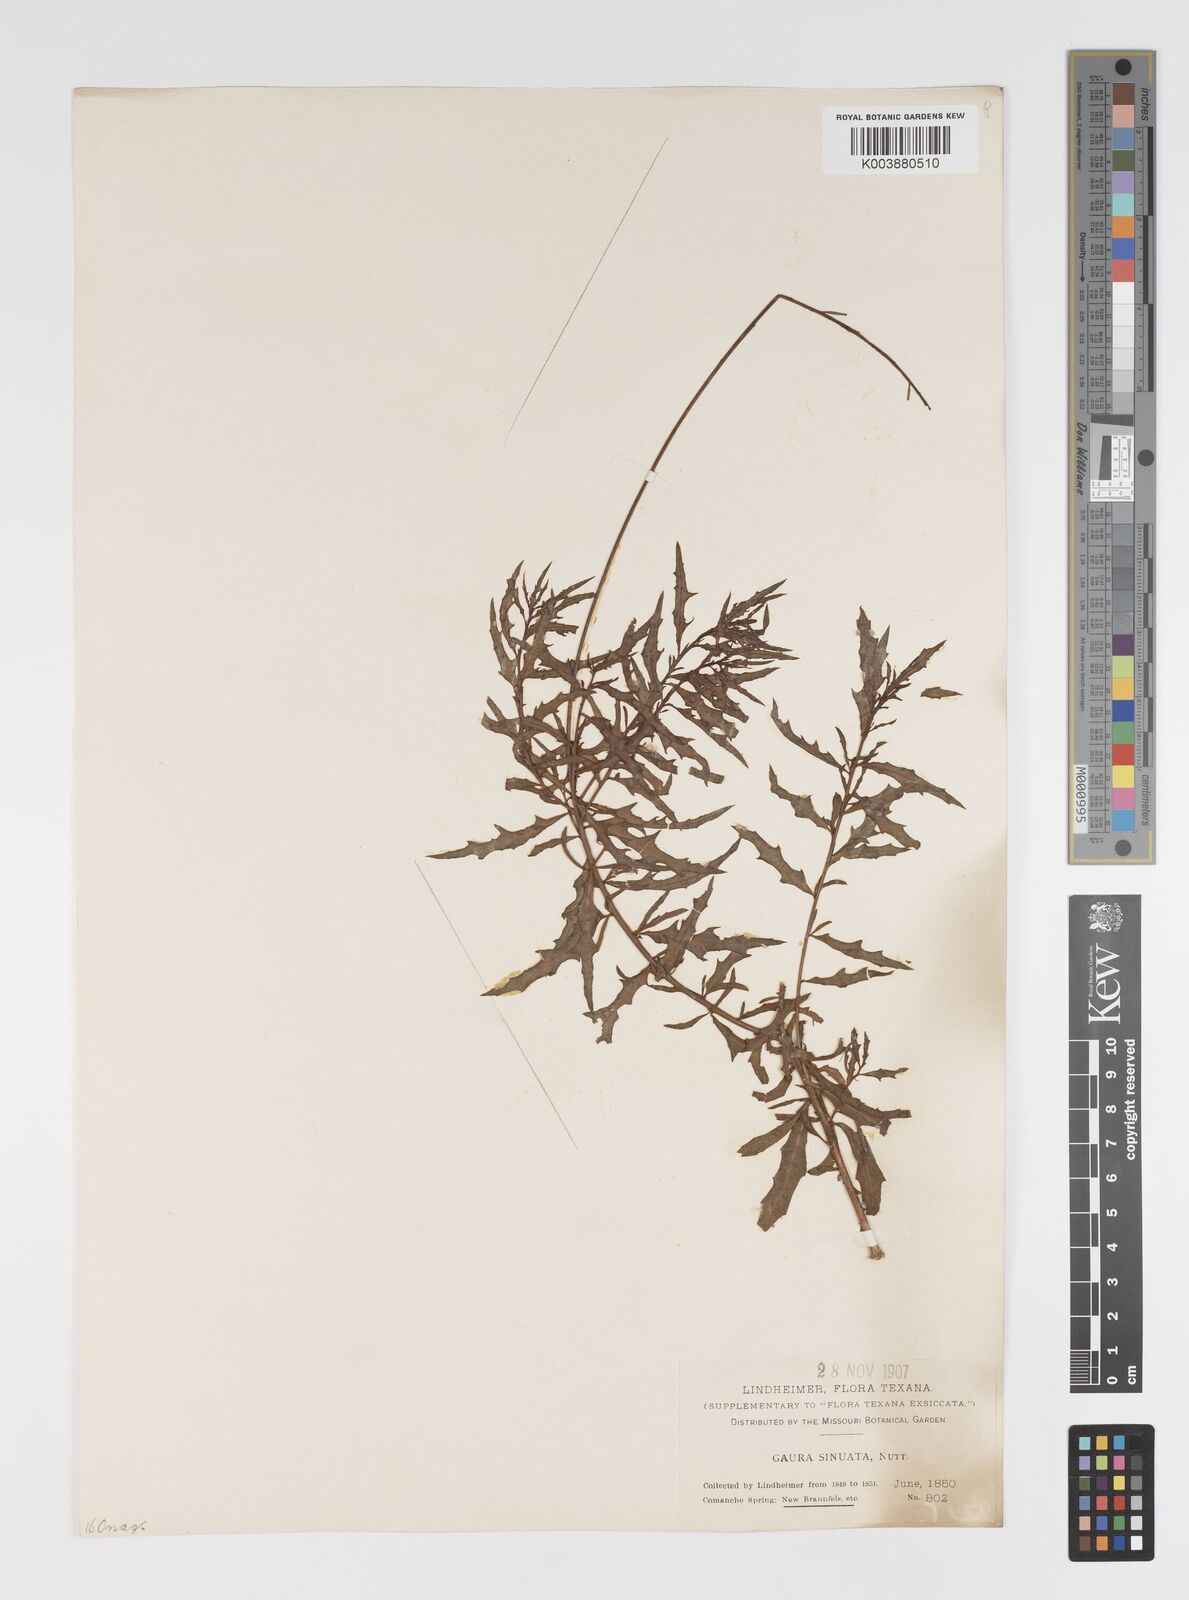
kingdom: Plantae
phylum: Tracheophyta
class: Magnoliopsida
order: Myrtales
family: Onagraceae
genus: Oenothera
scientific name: Oenothera sinuosa
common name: Wavyleaf beeblossom
